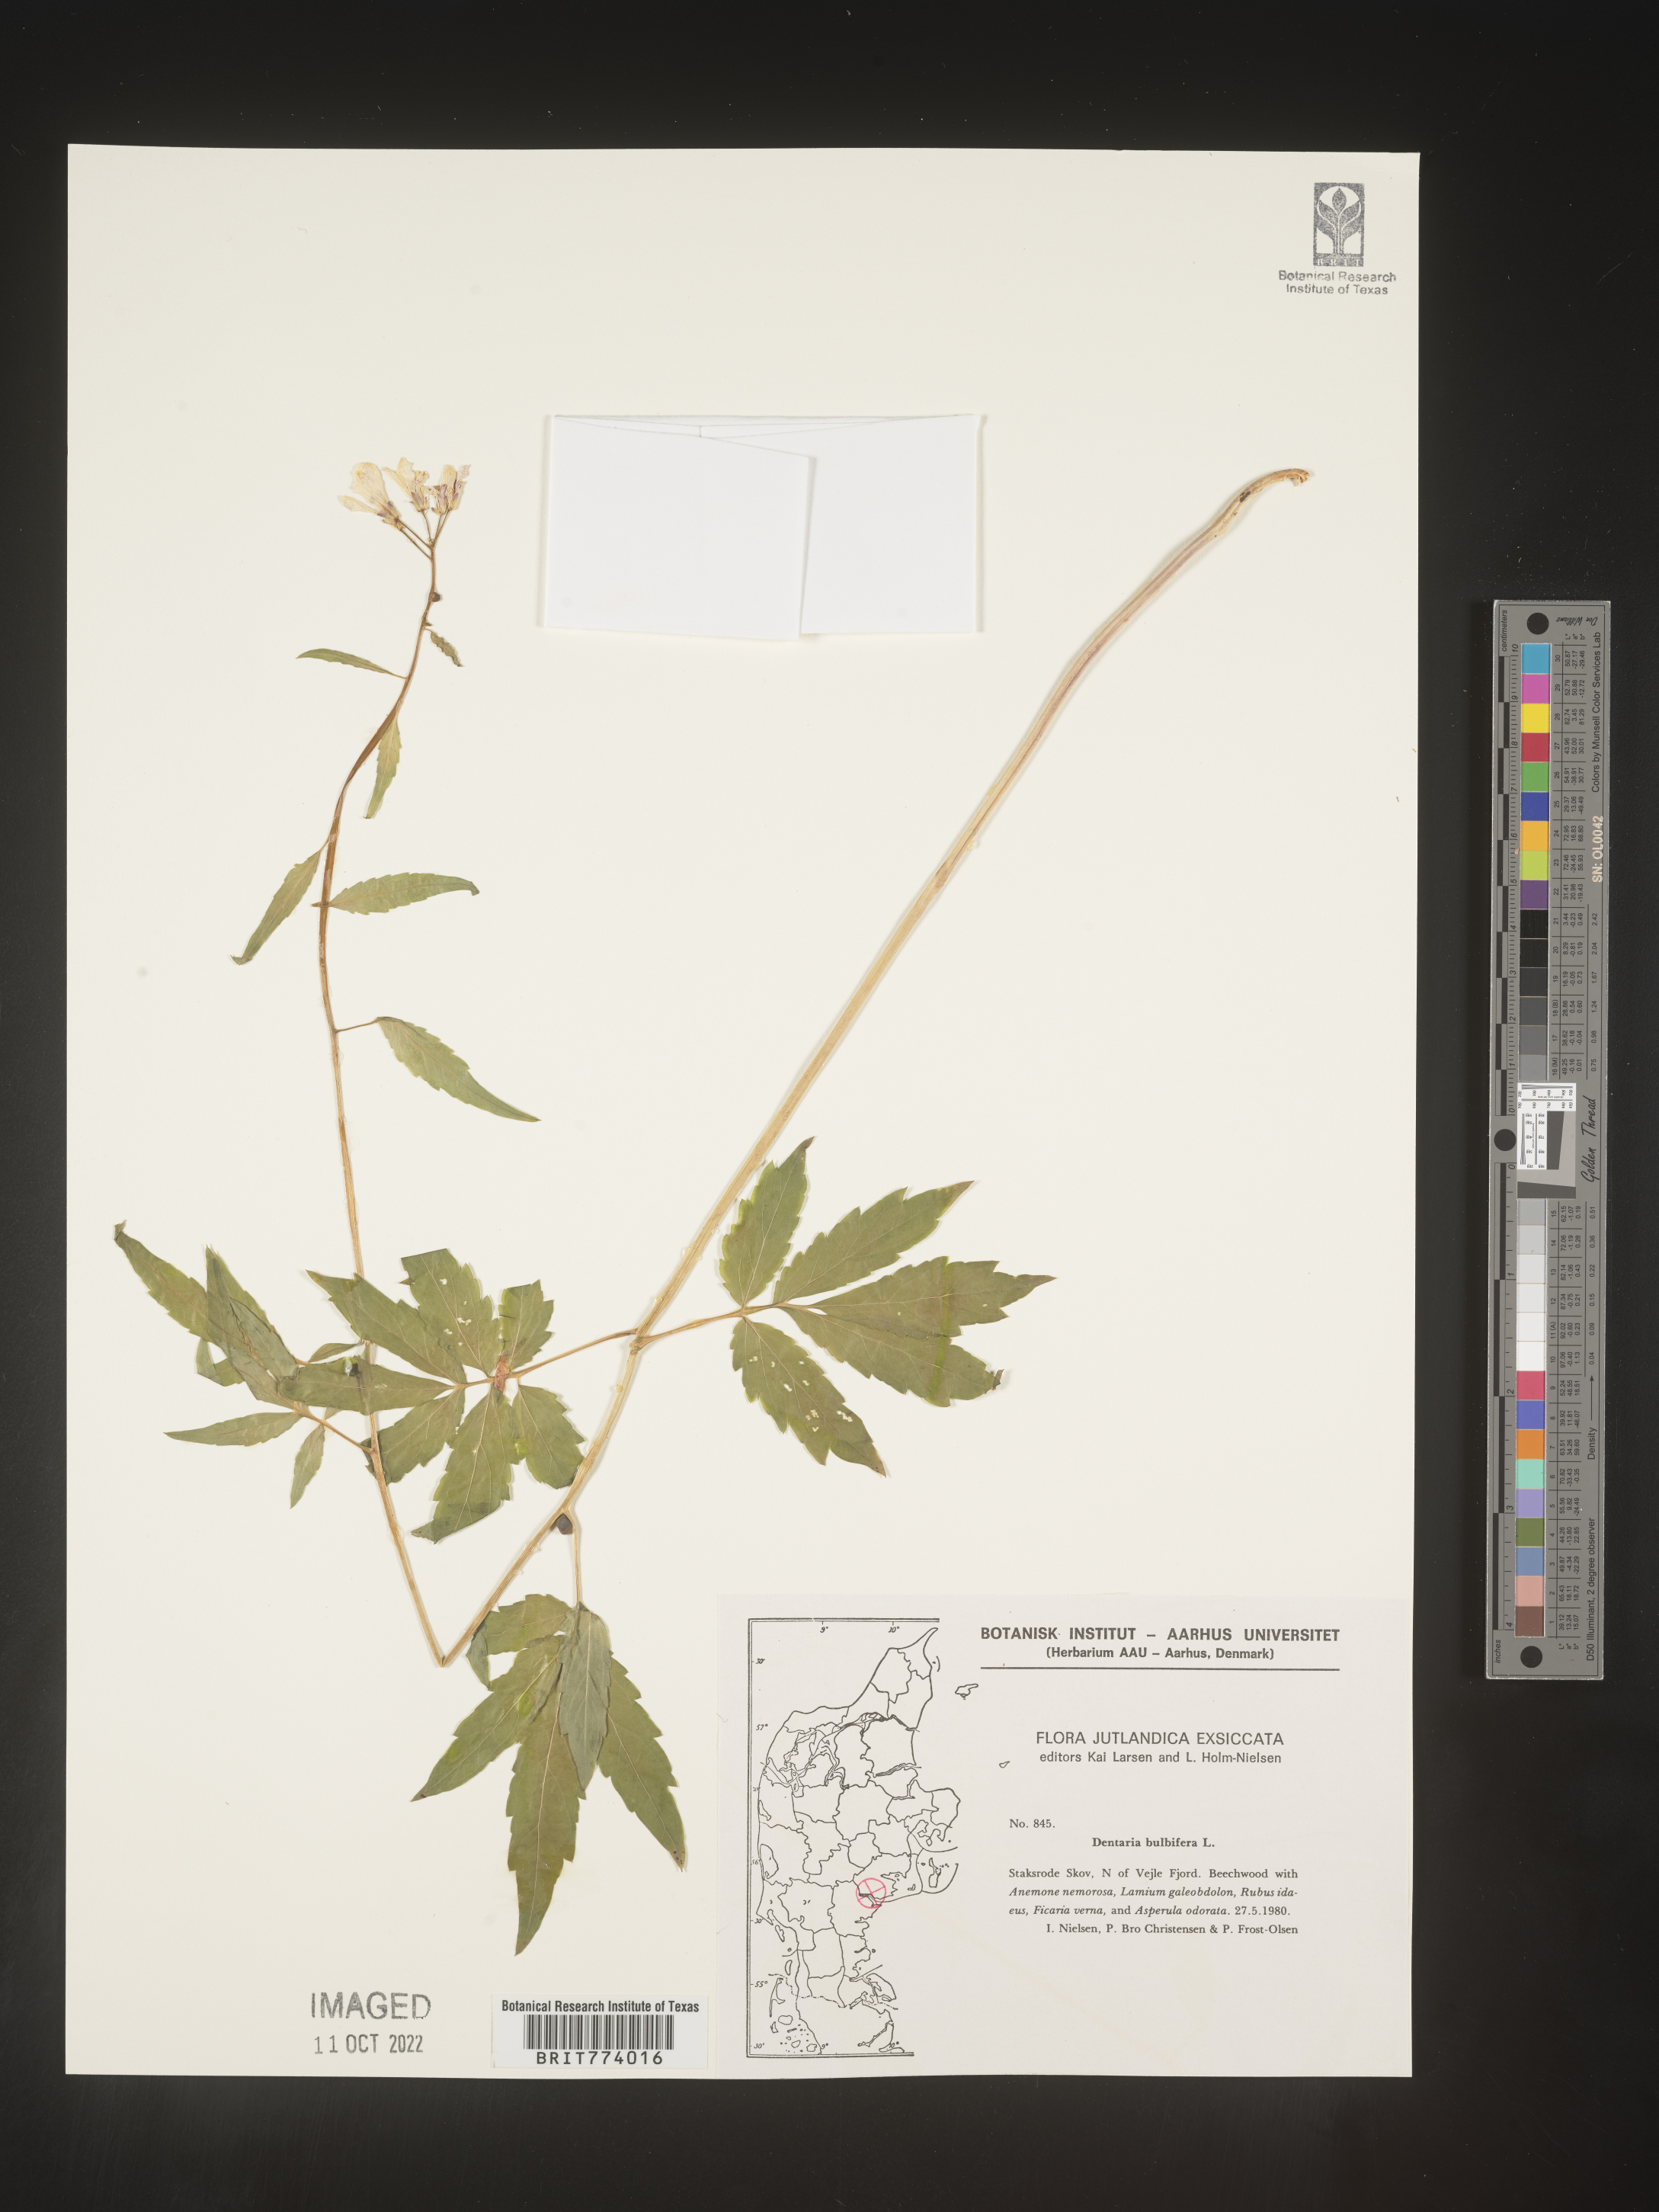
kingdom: Plantae
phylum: Tracheophyta
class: Magnoliopsida
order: Brassicales
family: Brassicaceae
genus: Cardamine
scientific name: Cardamine
